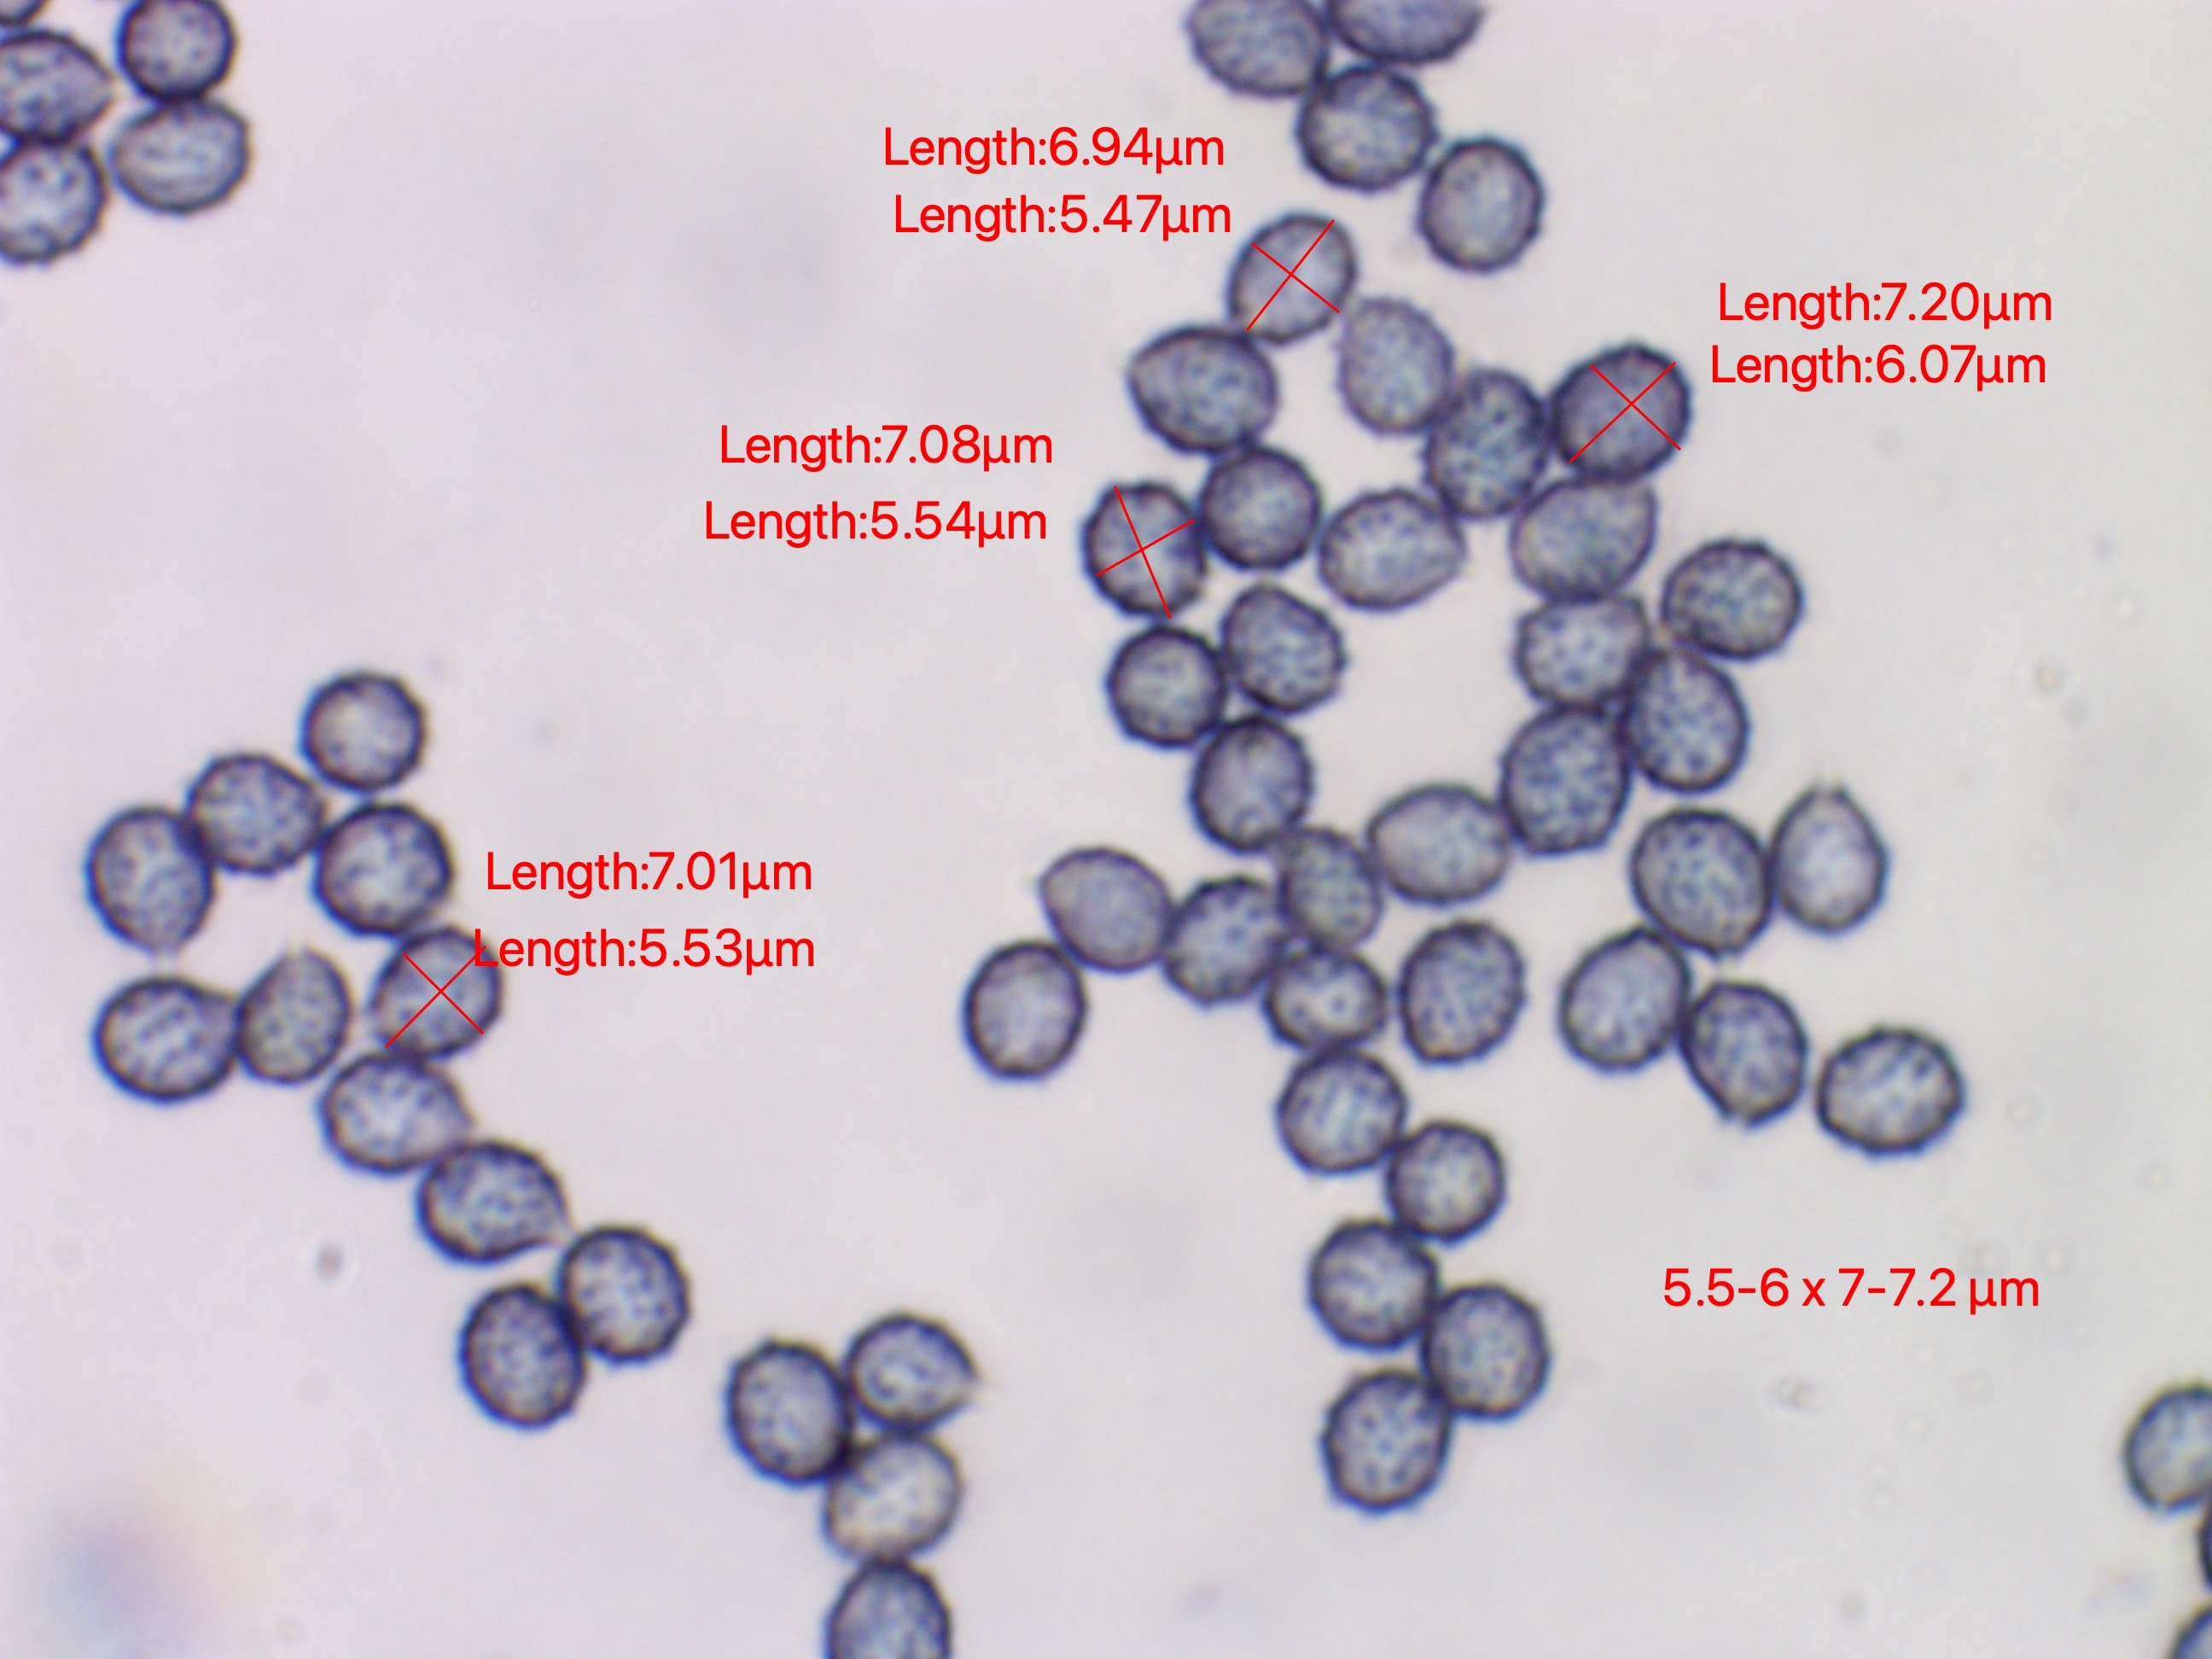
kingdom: Fungi
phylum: Basidiomycota
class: Agaricomycetes
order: Russulales
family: Russulaceae
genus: Russula
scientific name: Russula recondita
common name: mild kam-skørhat
